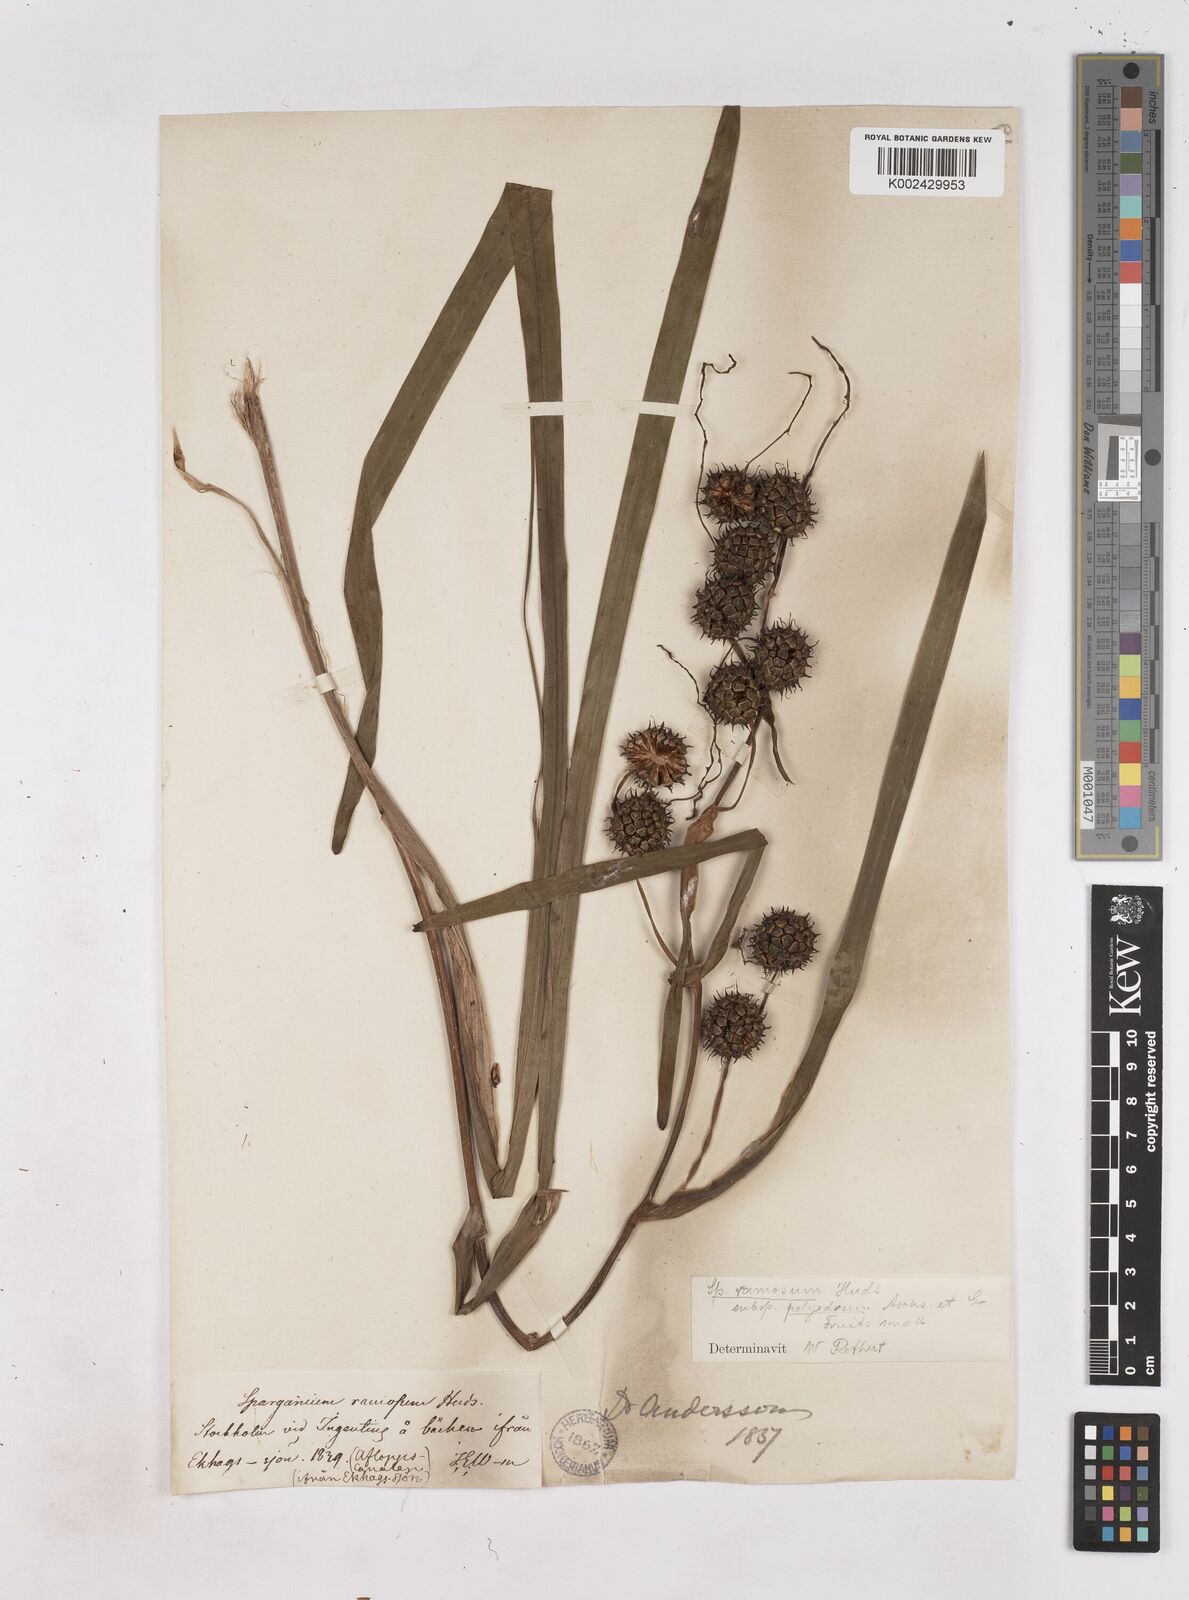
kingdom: Plantae
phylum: Tracheophyta
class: Liliopsida
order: Poales
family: Typhaceae
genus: Sparganium
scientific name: Sparganium erectum
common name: Branched bur-reed
